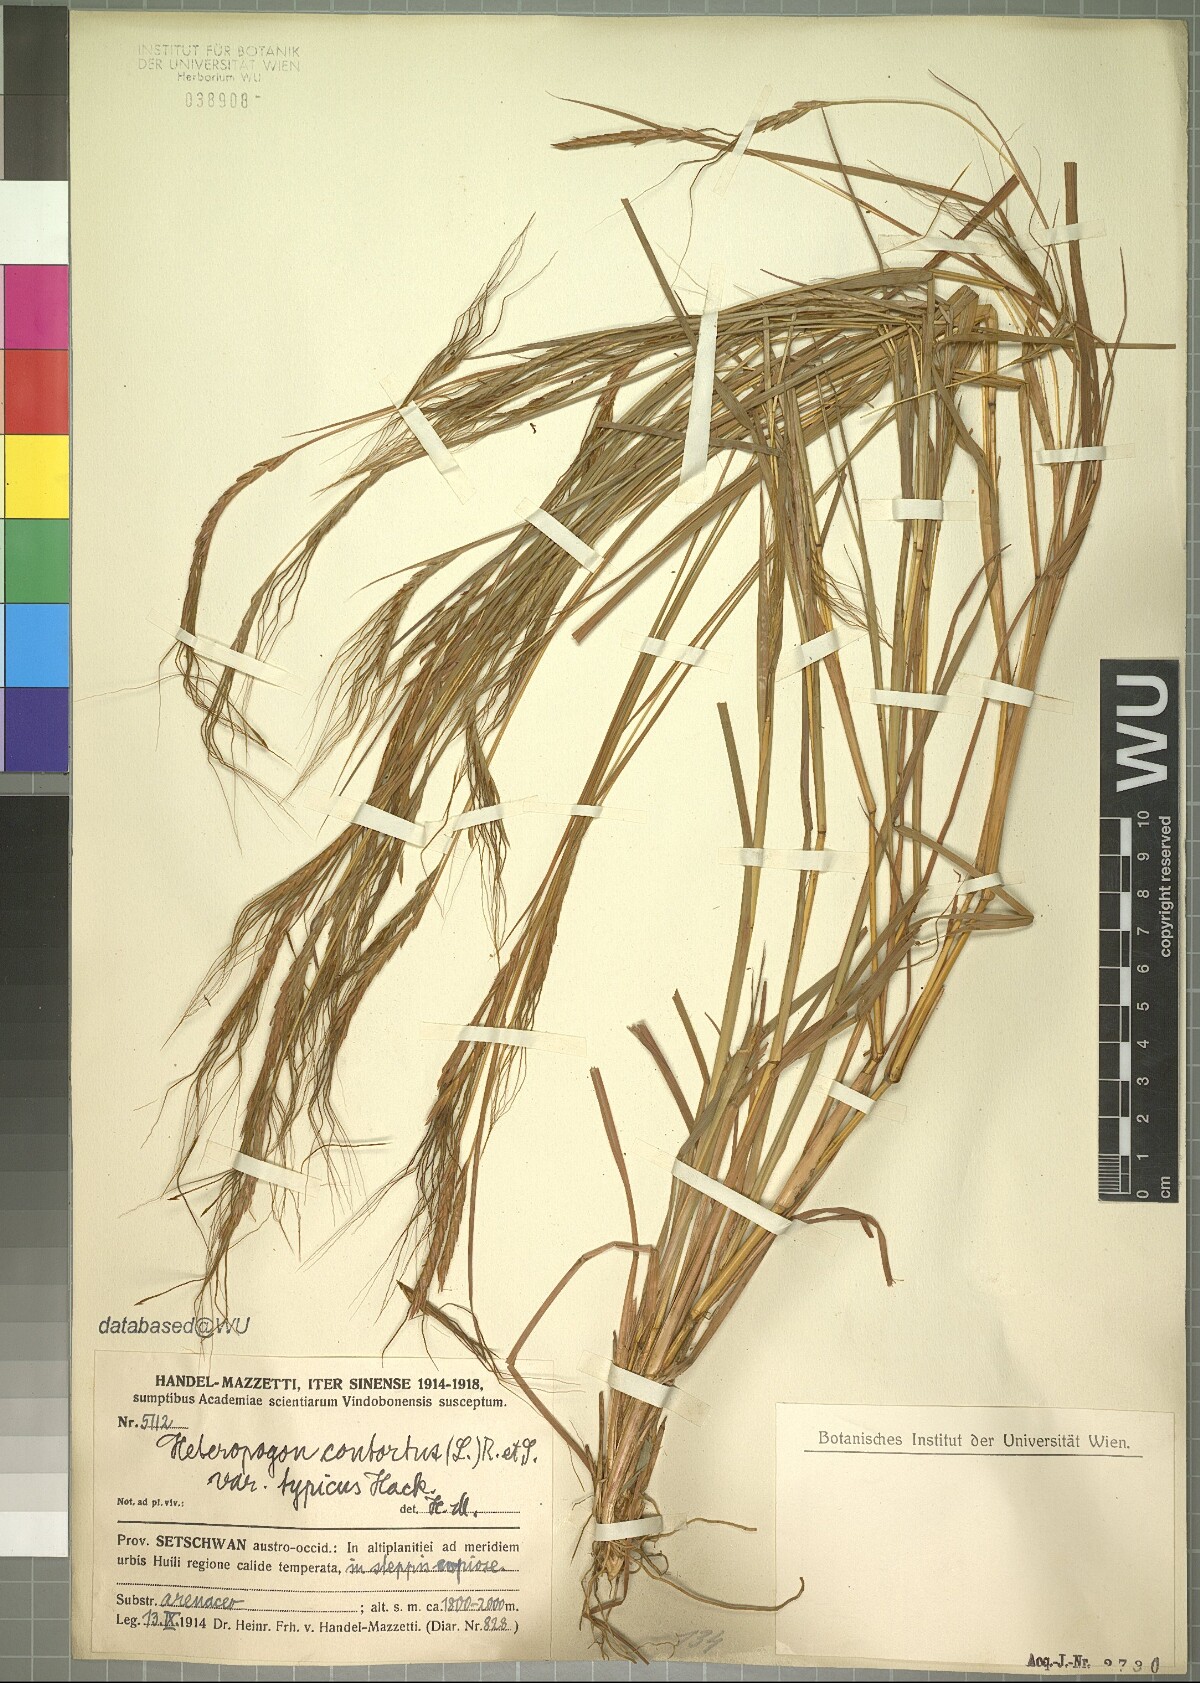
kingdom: Plantae
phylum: Tracheophyta
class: Liliopsida
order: Poales
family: Poaceae
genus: Heteropogon
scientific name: Heteropogon contortus
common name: Tanglehead
